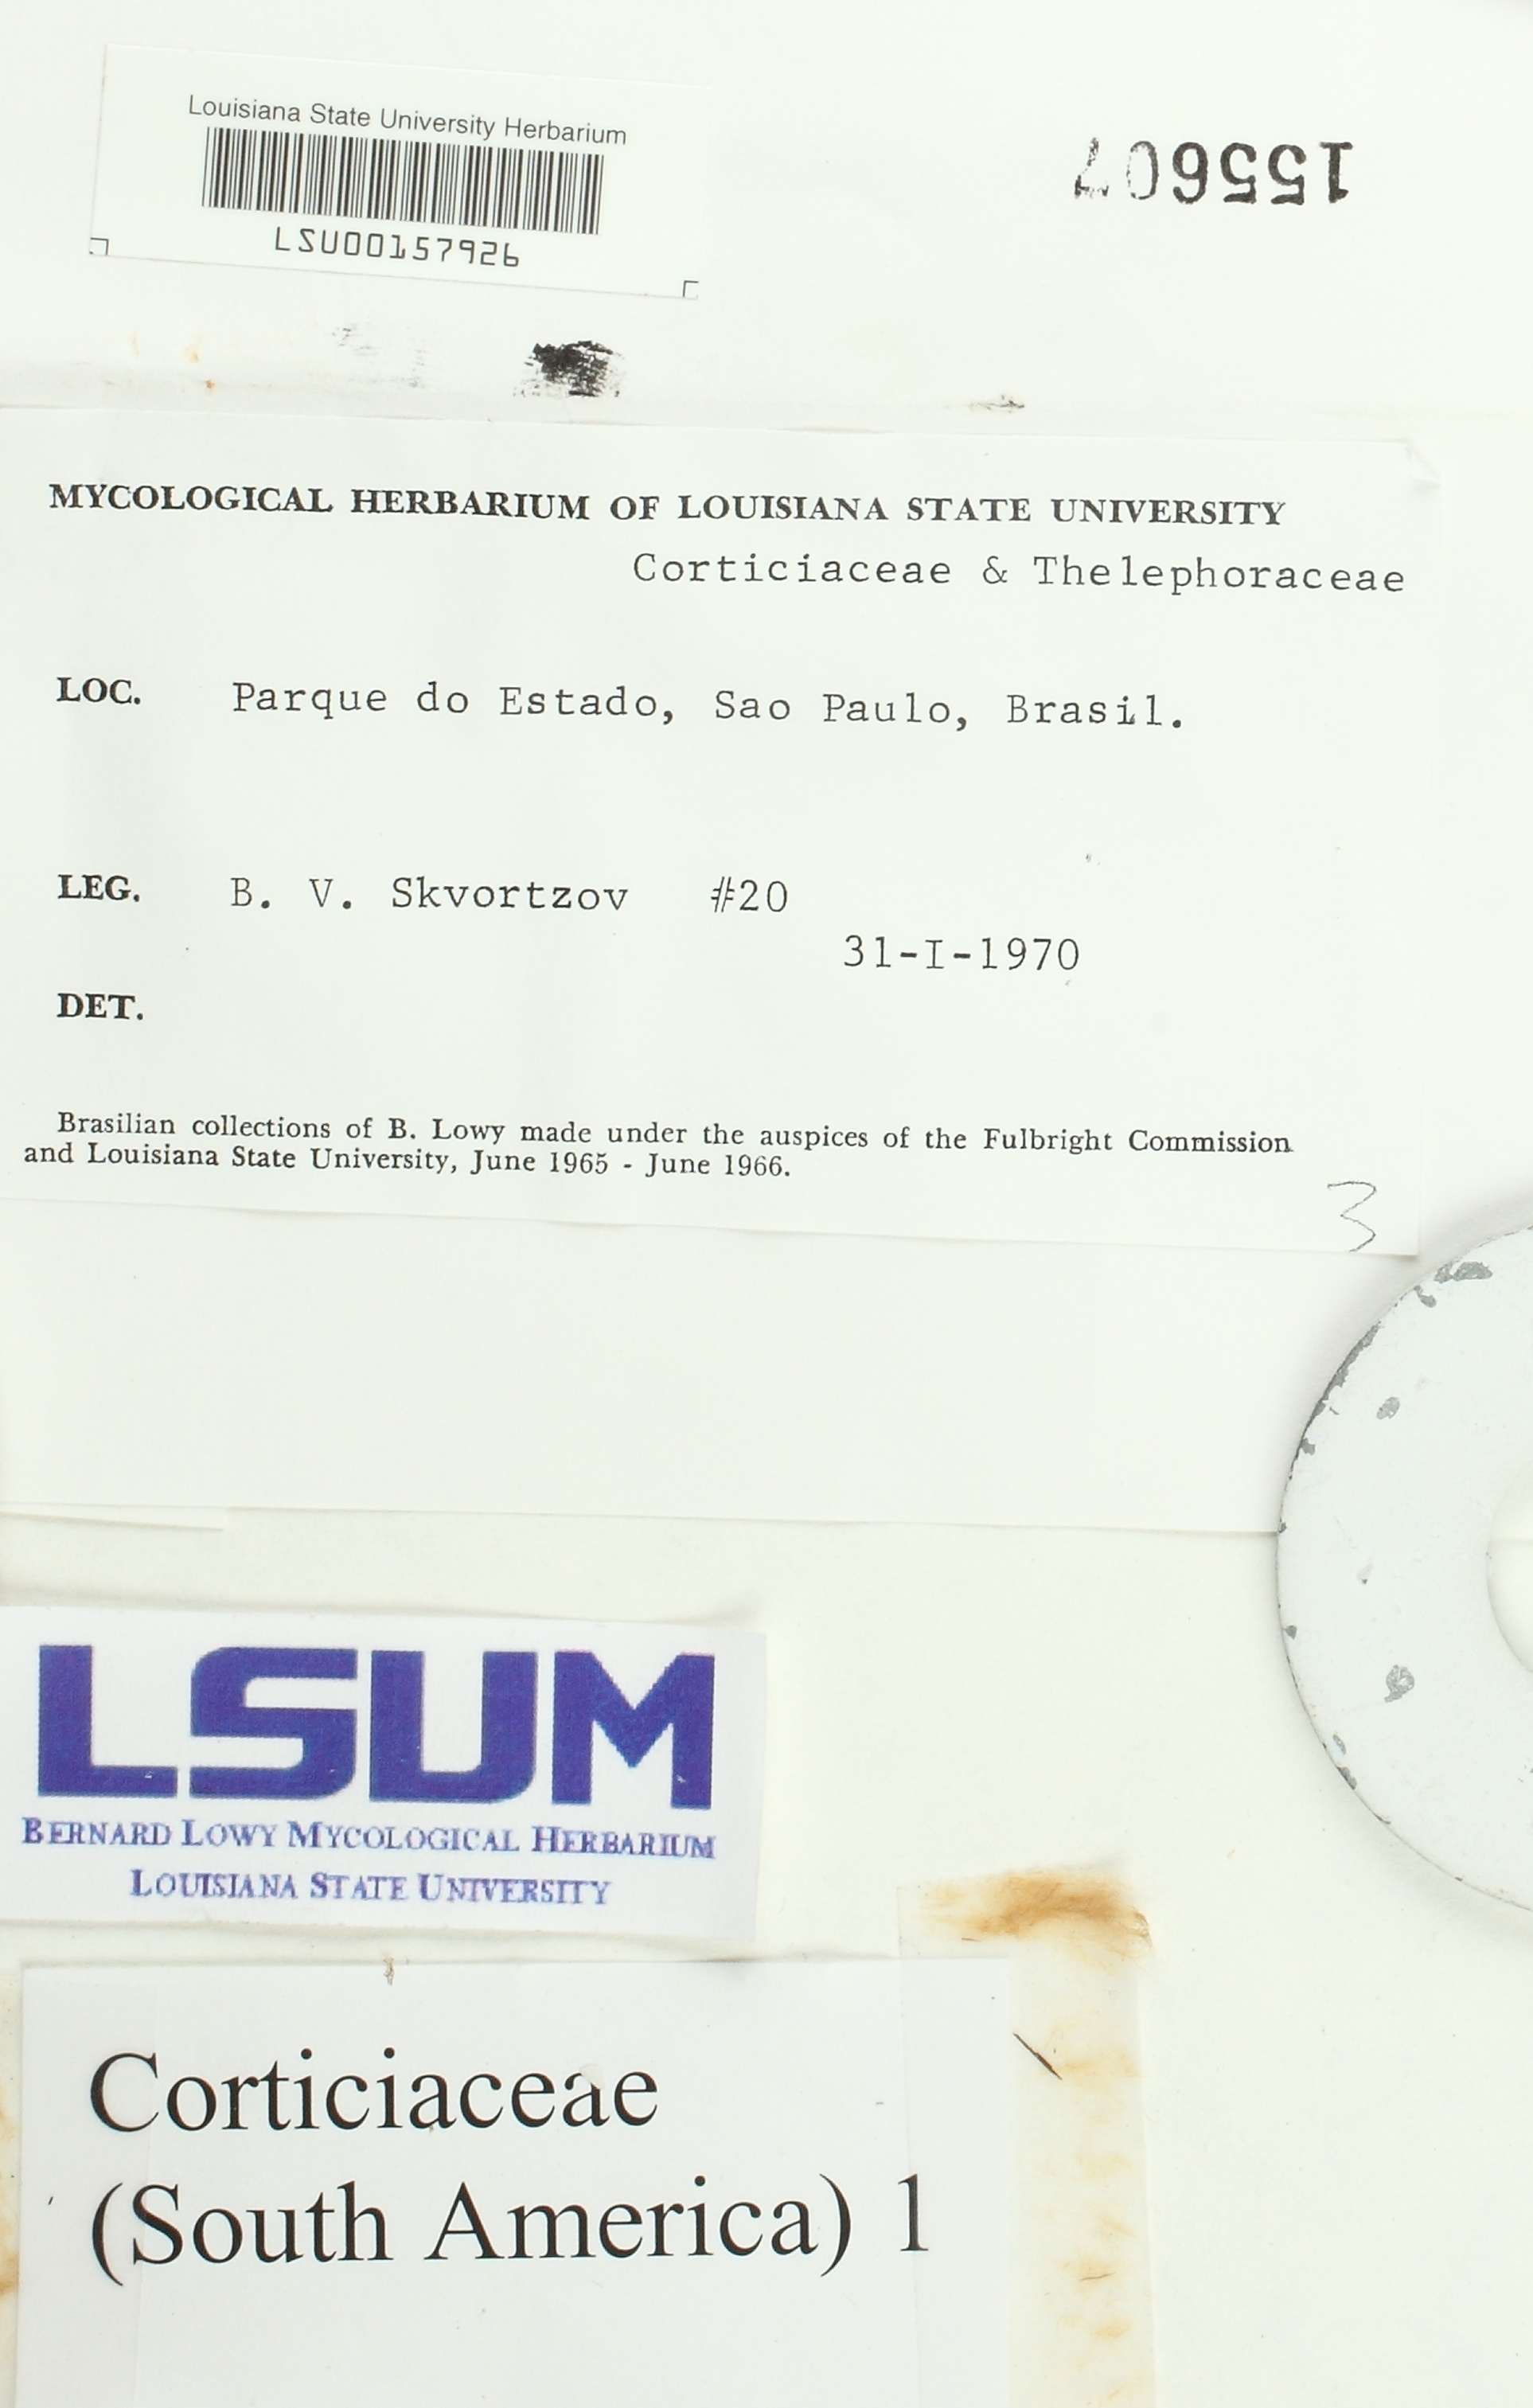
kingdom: Fungi
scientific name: Fungi
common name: Fungi
